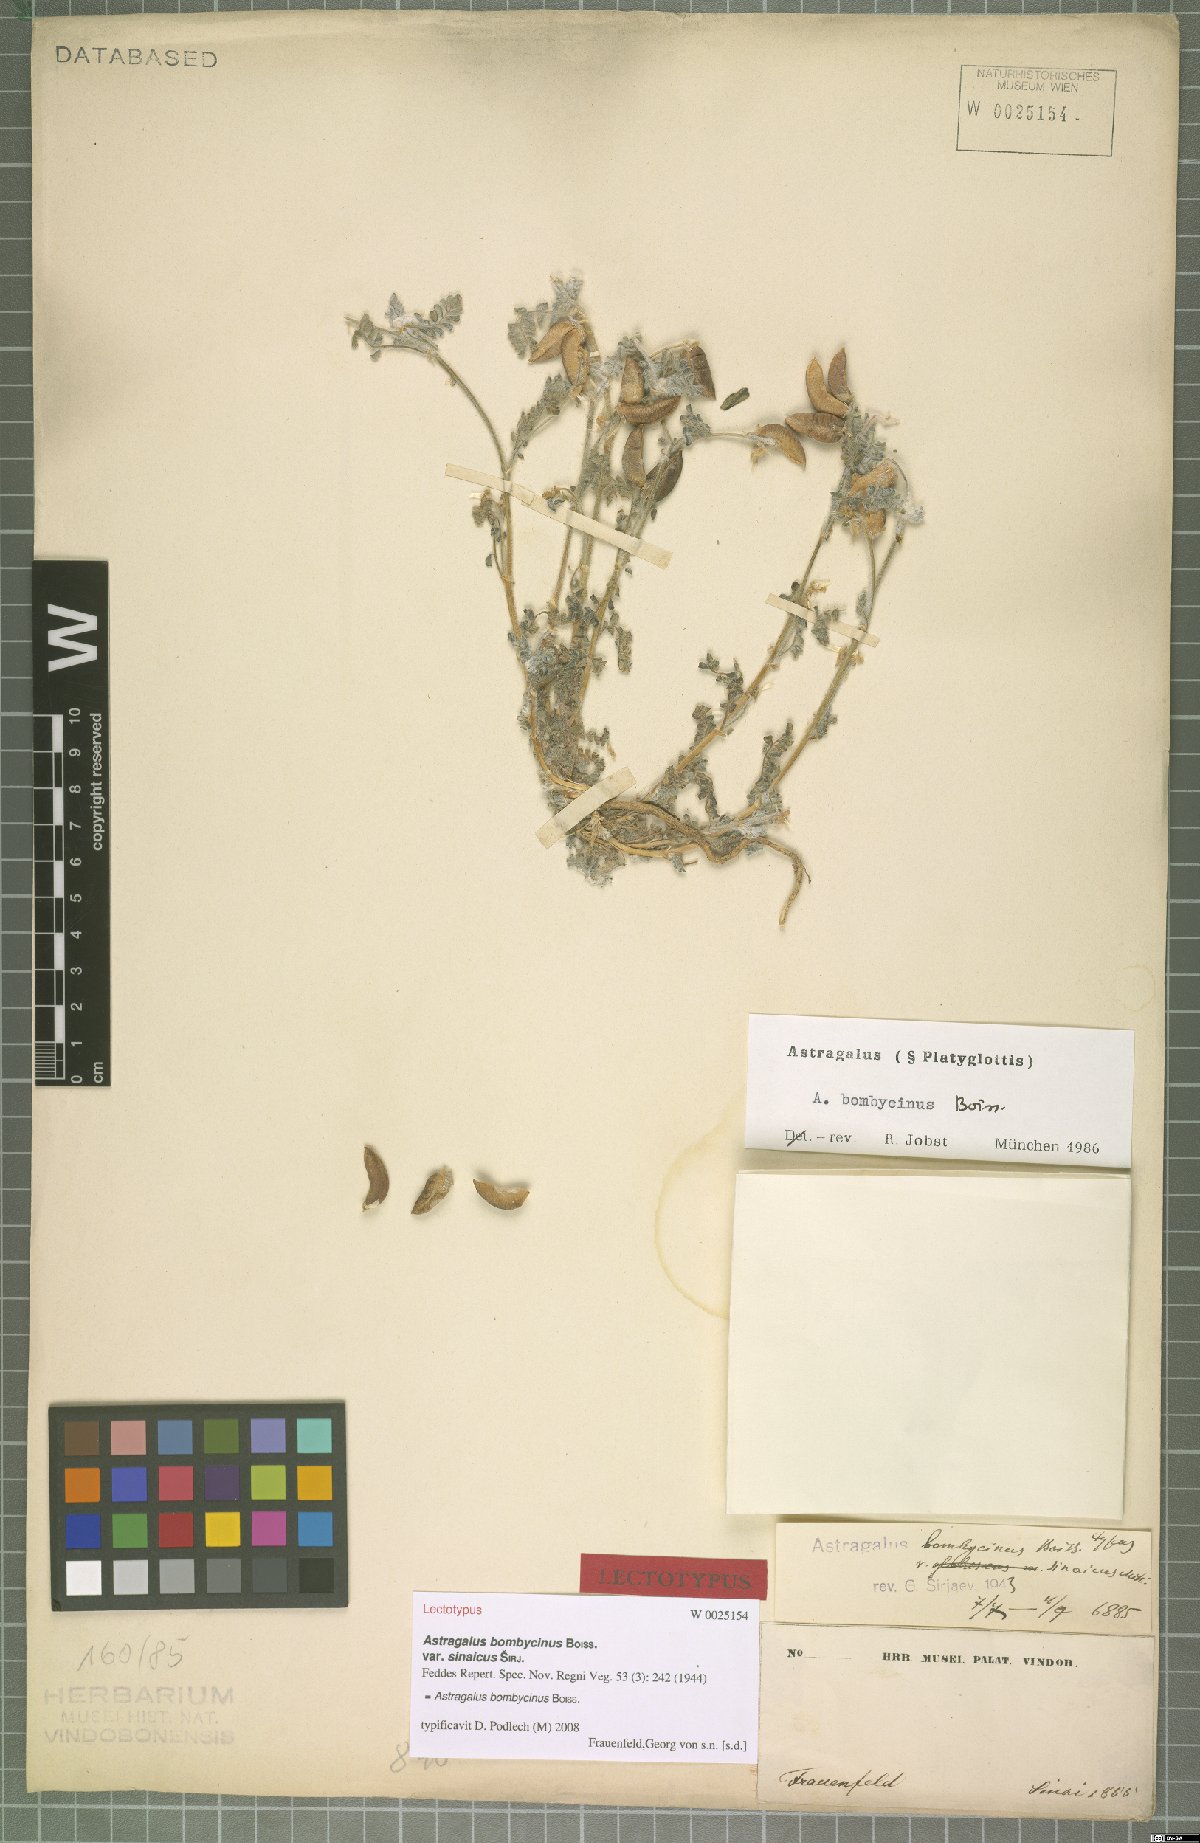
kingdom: Plantae
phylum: Tracheophyta
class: Magnoliopsida
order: Fabales
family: Fabaceae
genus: Astragalus
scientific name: Astragalus bombycinus
